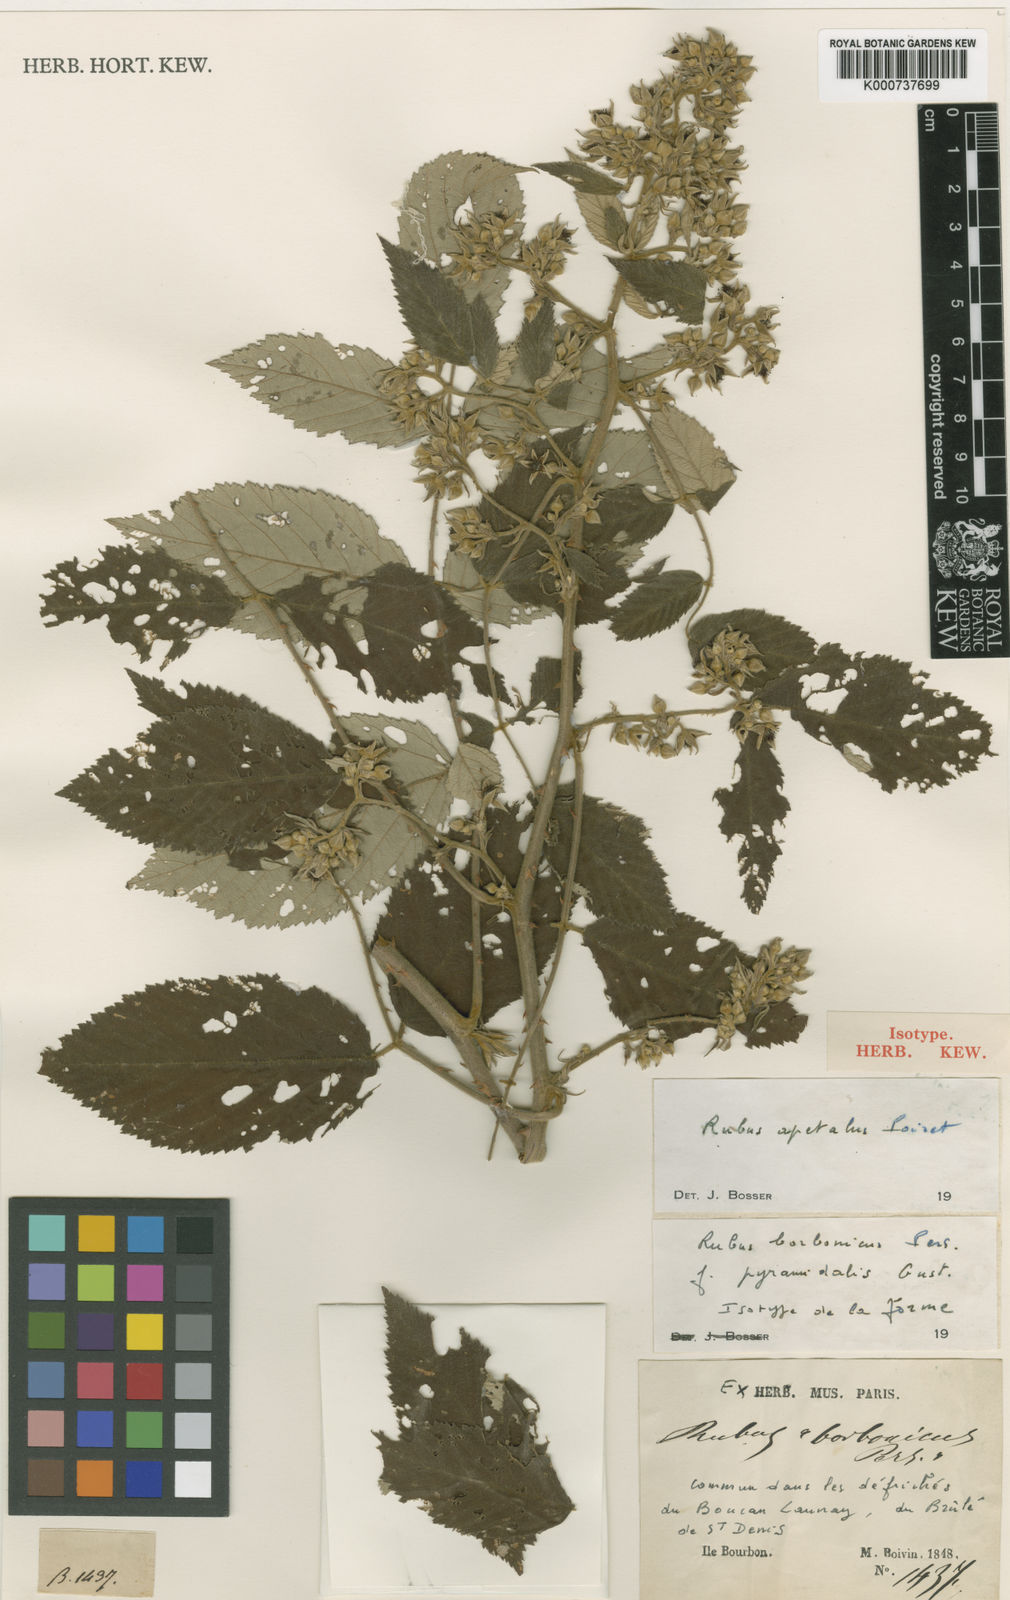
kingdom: Plantae
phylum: Tracheophyta
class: Magnoliopsida
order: Rosales
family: Rosaceae
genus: Rubus
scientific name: Rubus apetalus
